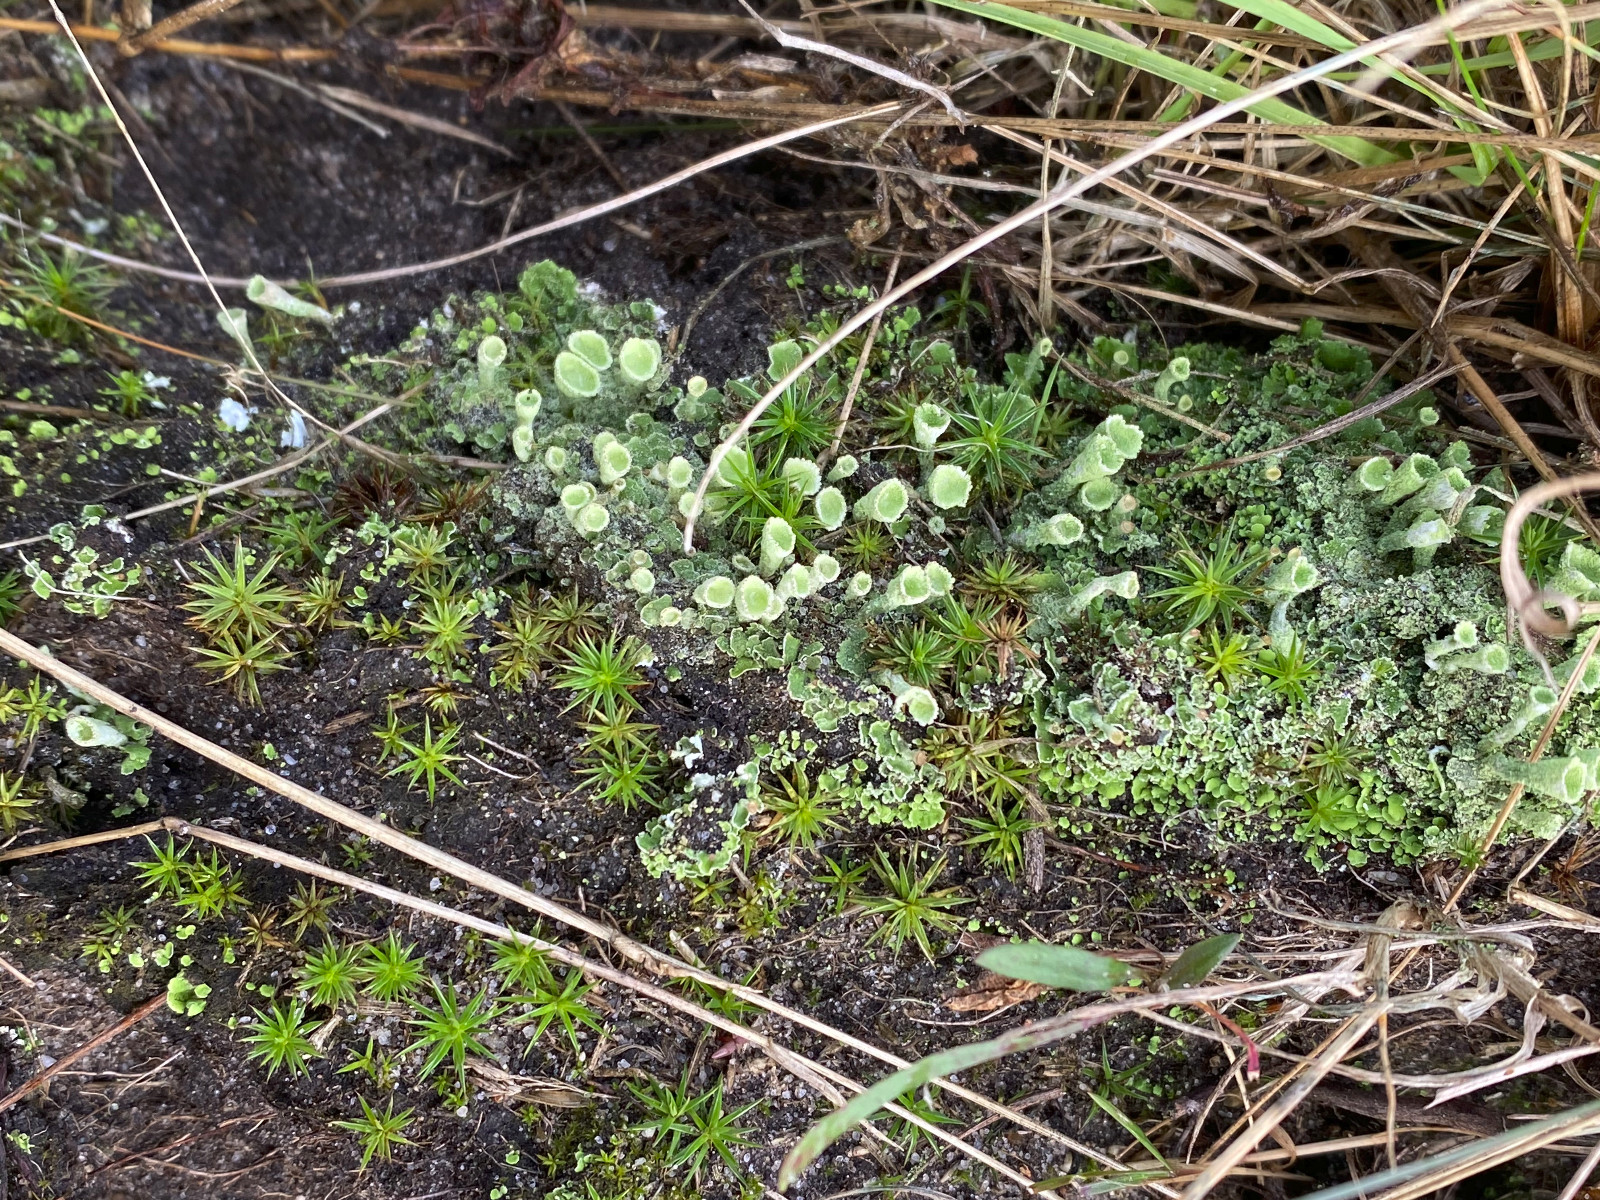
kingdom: Fungi
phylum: Ascomycota
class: Lecanoromycetes
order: Lecanorales
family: Cladoniaceae
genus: Cladonia
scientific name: Cladonia humilis
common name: lav bægerlav
